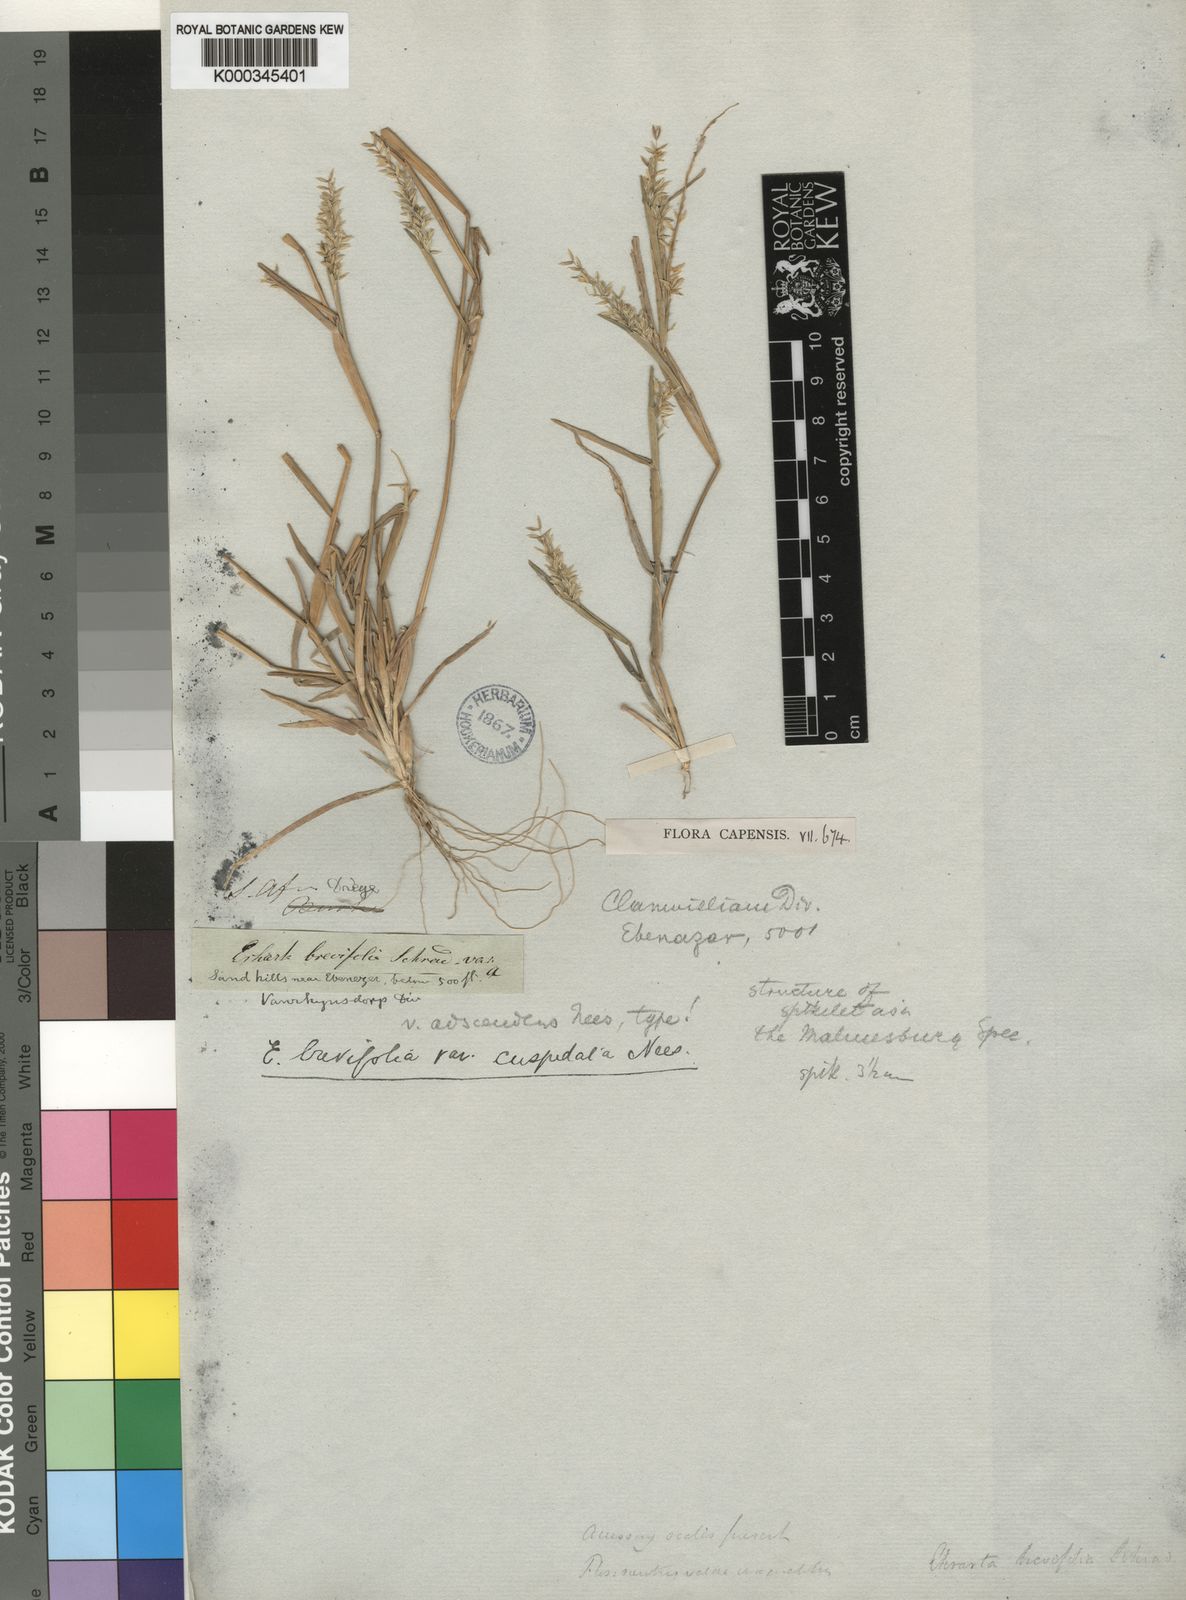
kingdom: Plantae
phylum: Tracheophyta
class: Liliopsida
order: Poales
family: Poaceae
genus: Ehrharta
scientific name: Ehrharta brevifolia
